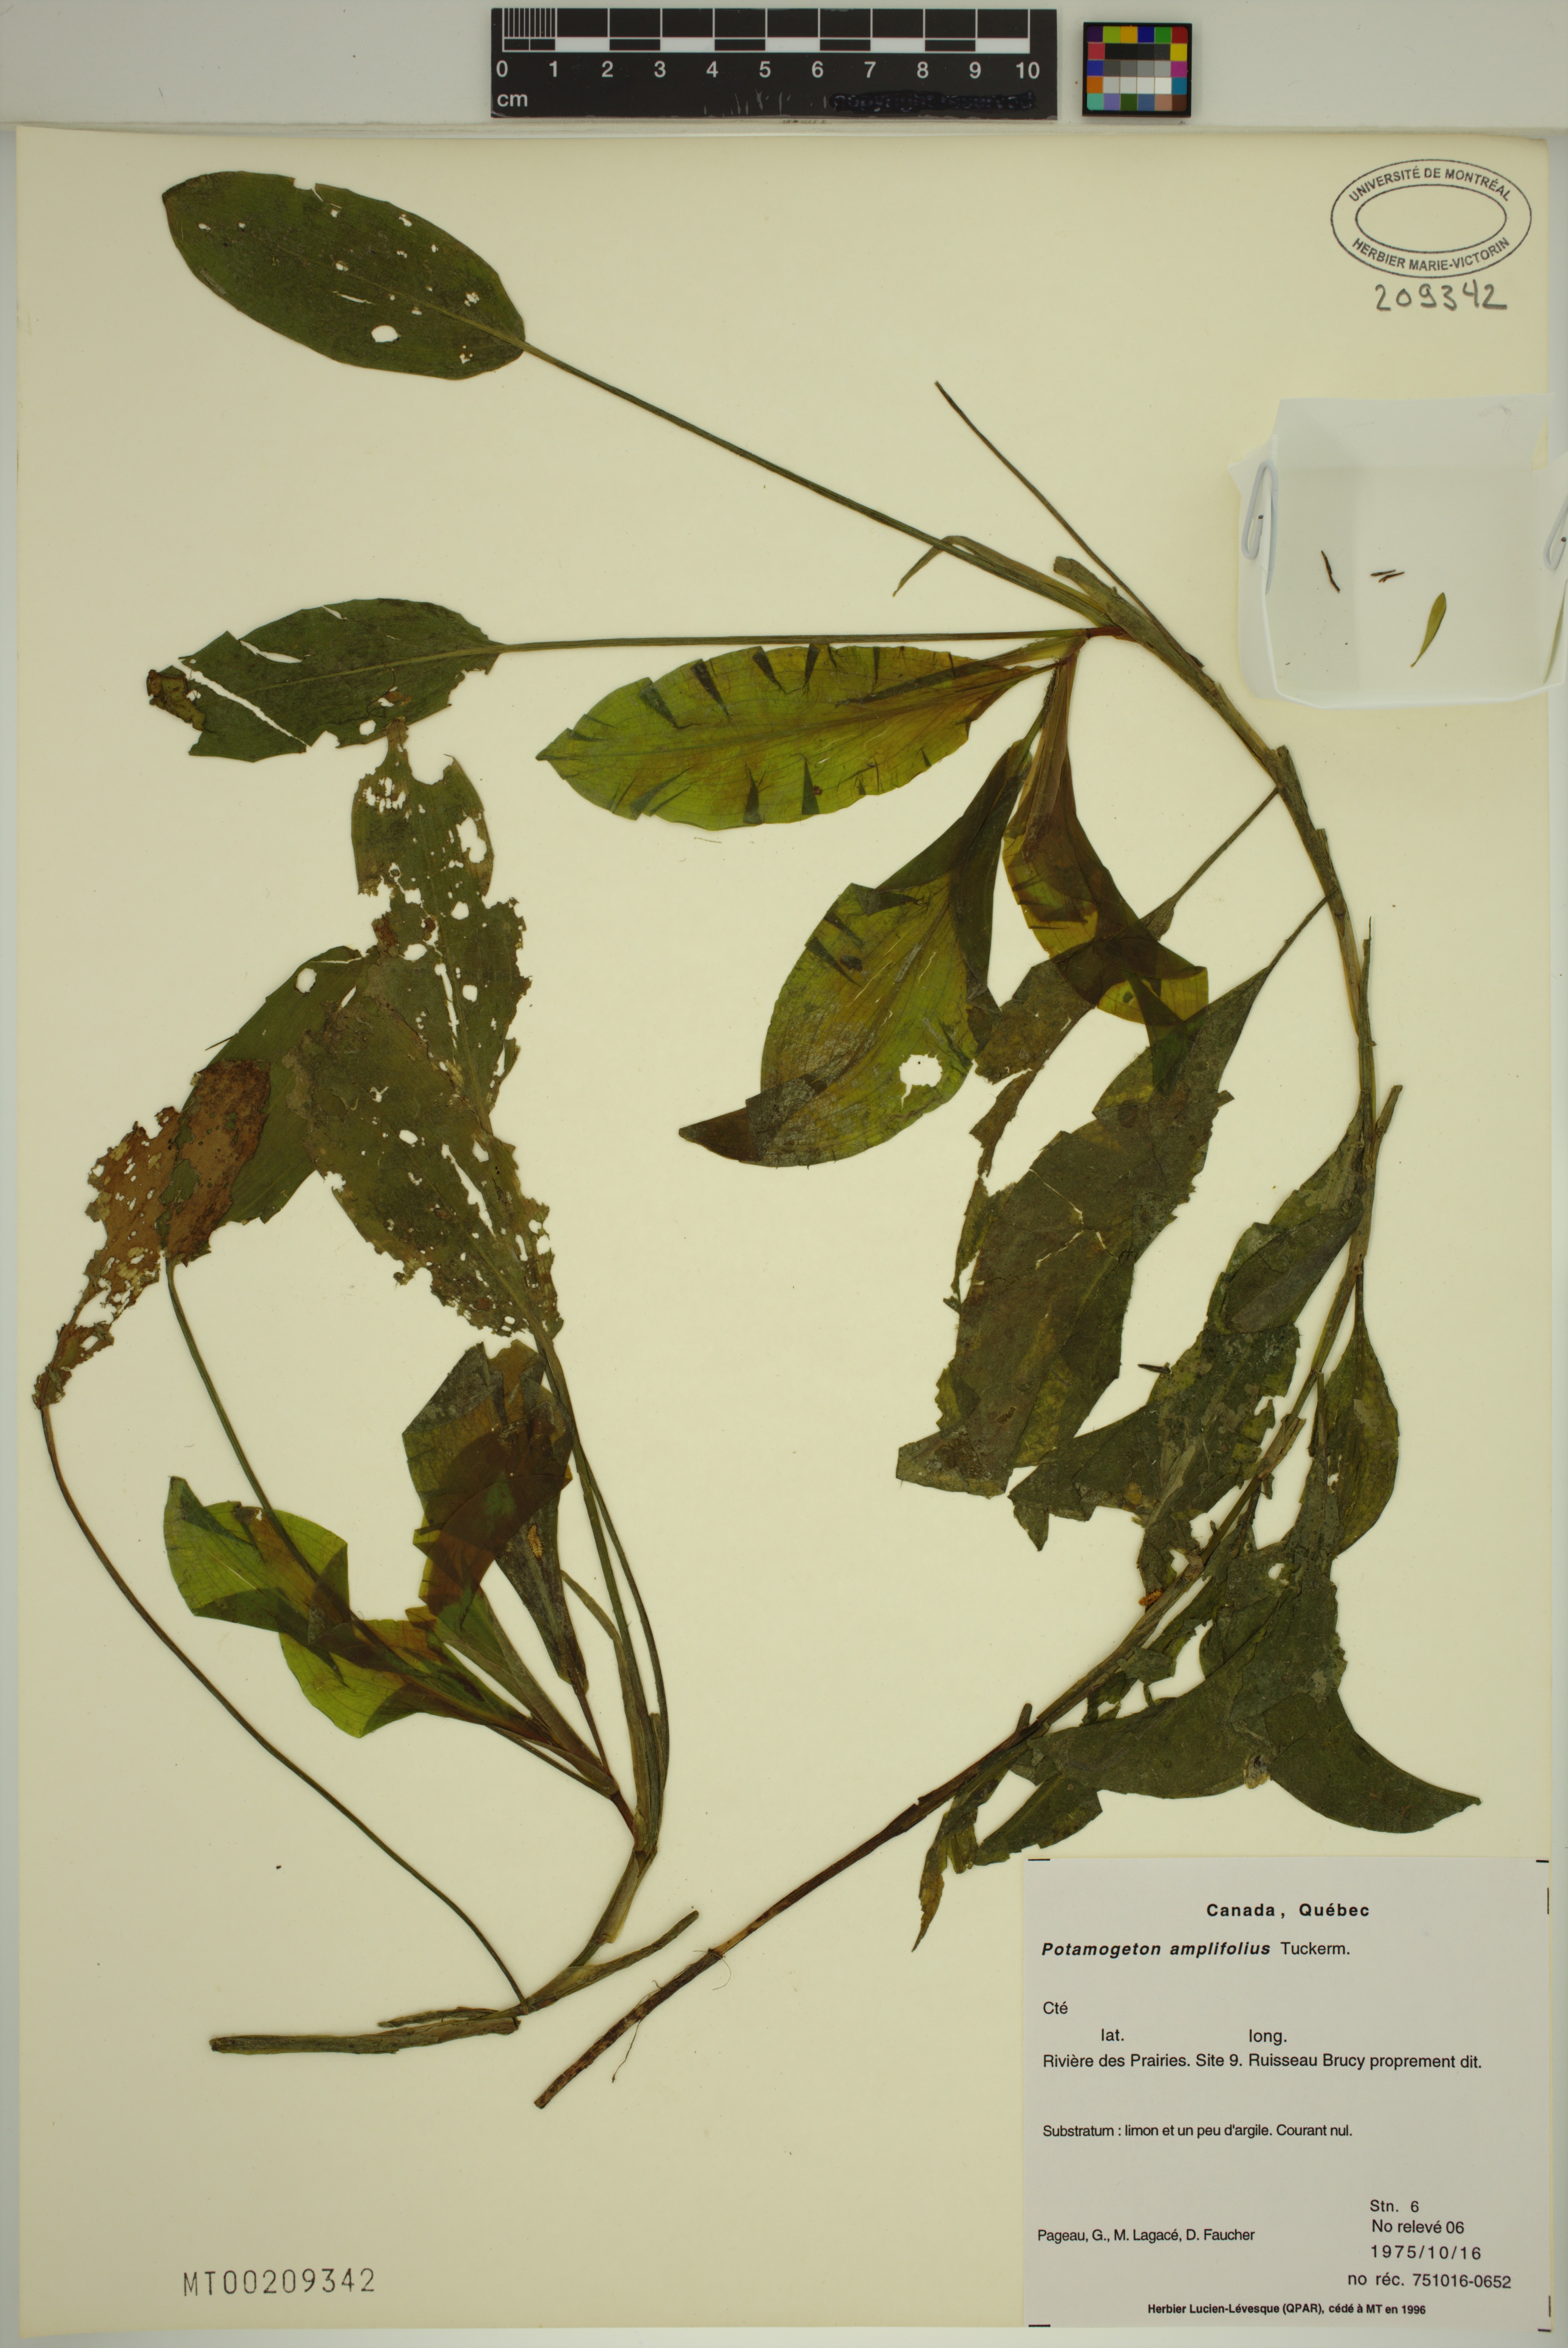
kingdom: Plantae
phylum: Tracheophyta
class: Liliopsida
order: Alismatales
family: Potamogetonaceae
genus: Potamogeton
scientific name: Potamogeton amplifolius
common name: Broad-leaved pondweed
